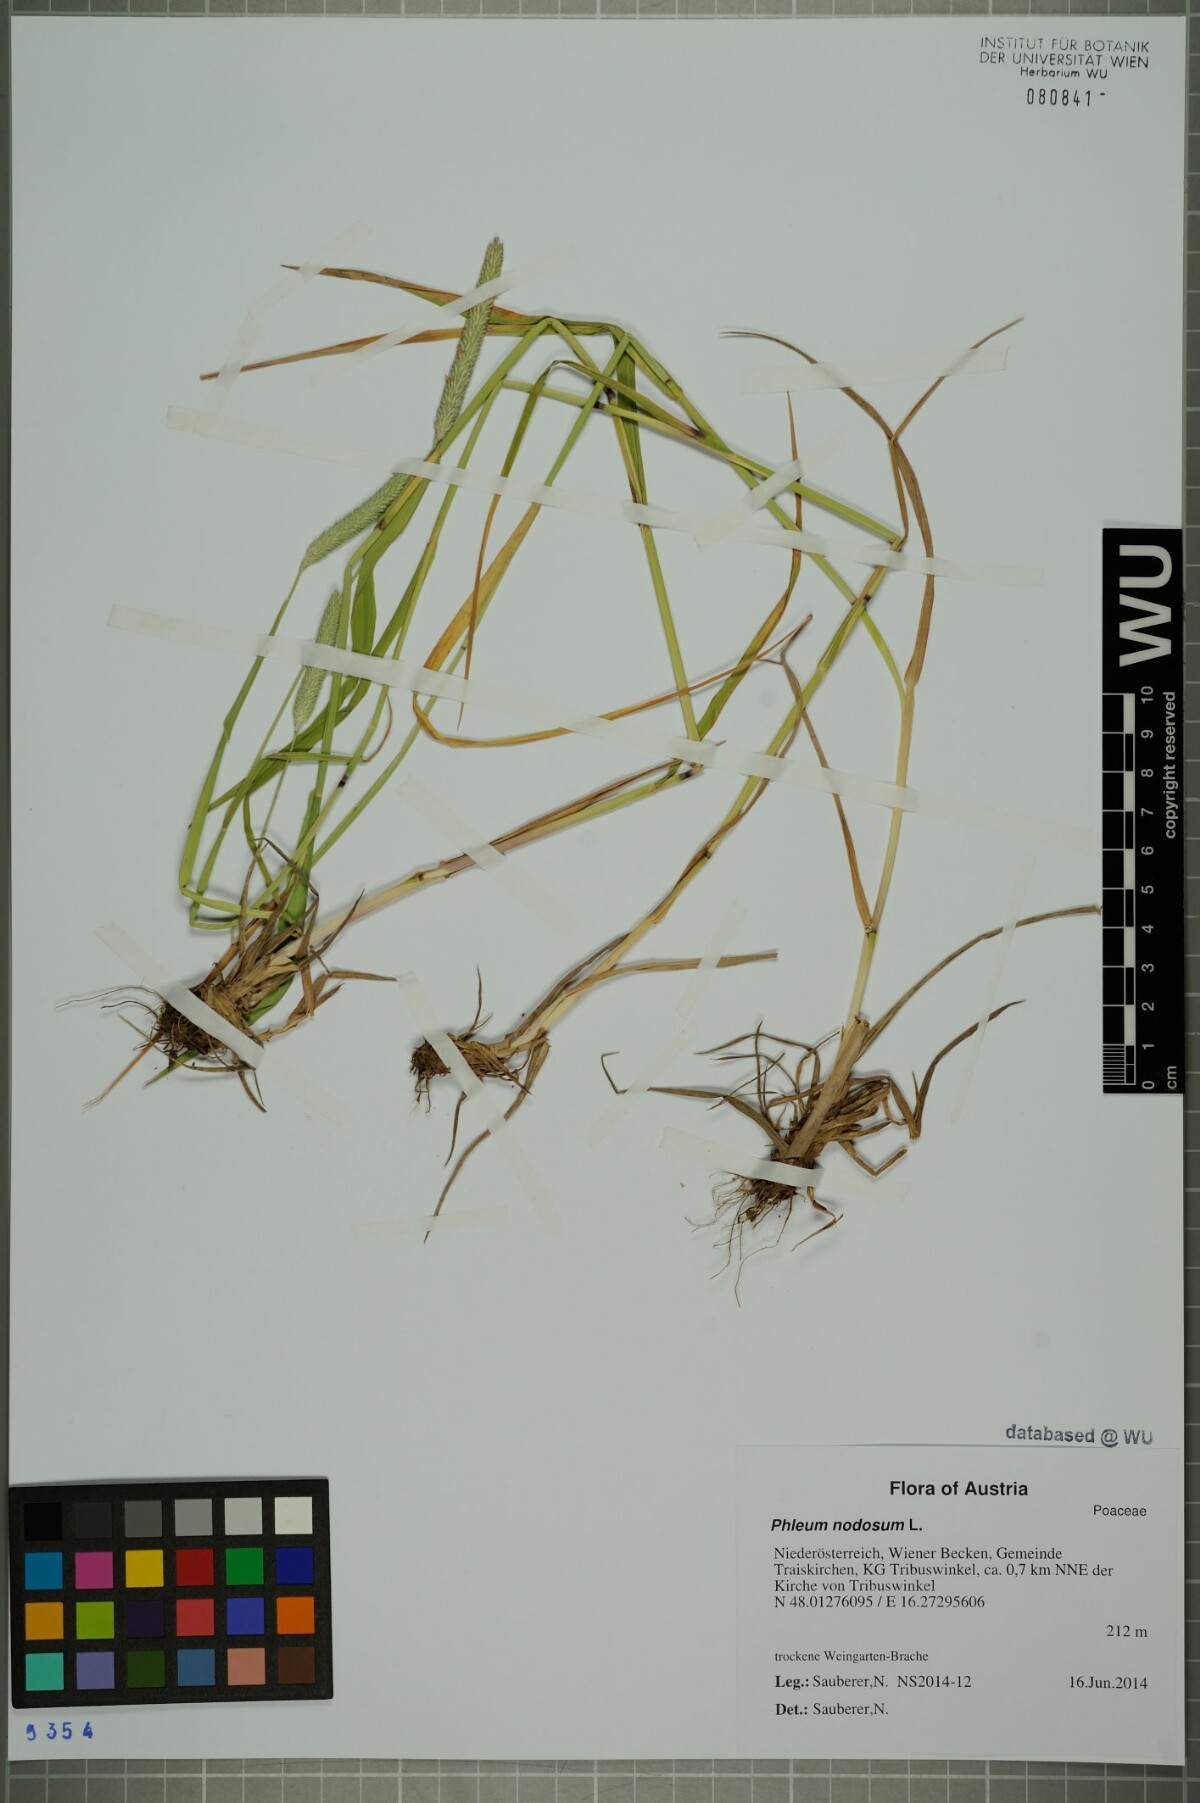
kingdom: Plantae
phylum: Tracheophyta
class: Liliopsida
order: Poales
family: Poaceae
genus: Phleum
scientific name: Phleum pratense
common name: Timothy grass
